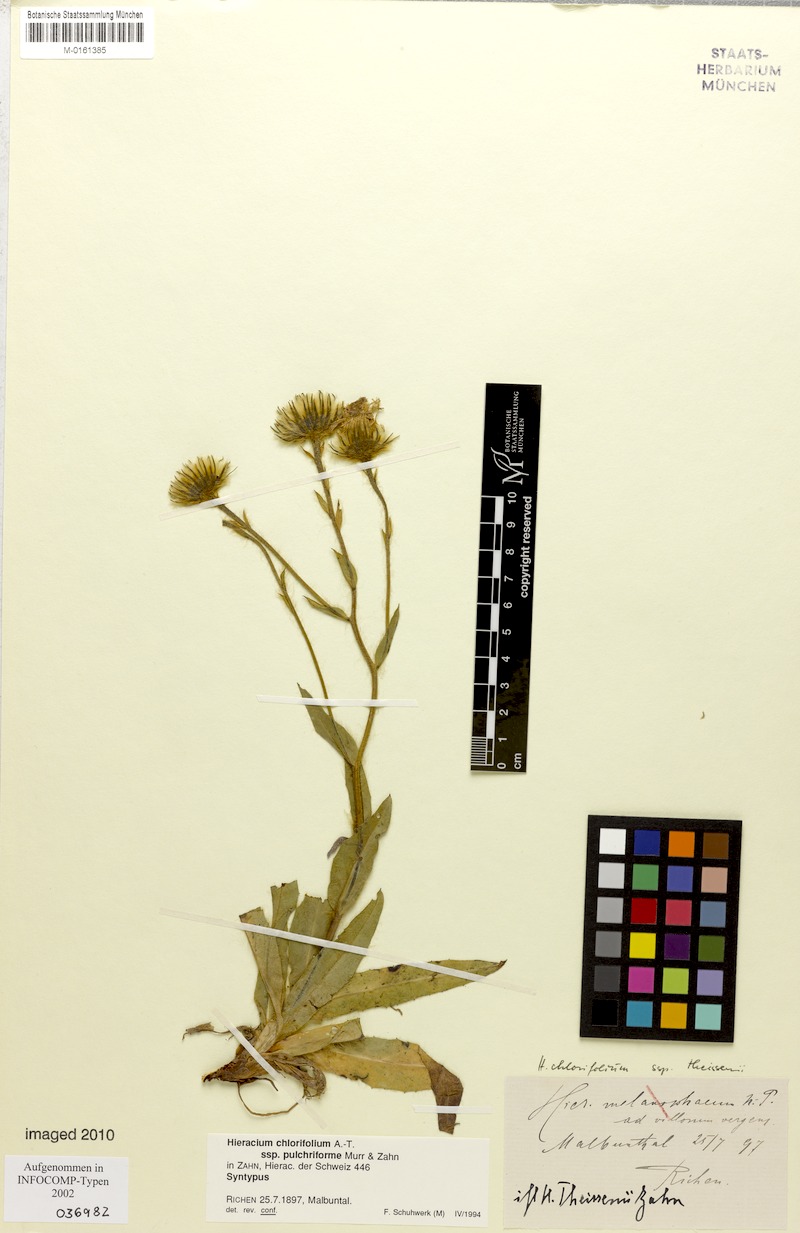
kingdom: Plantae
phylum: Tracheophyta
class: Magnoliopsida
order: Asterales
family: Asteraceae
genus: Hieracium
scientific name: Hieracium chlorifolium
